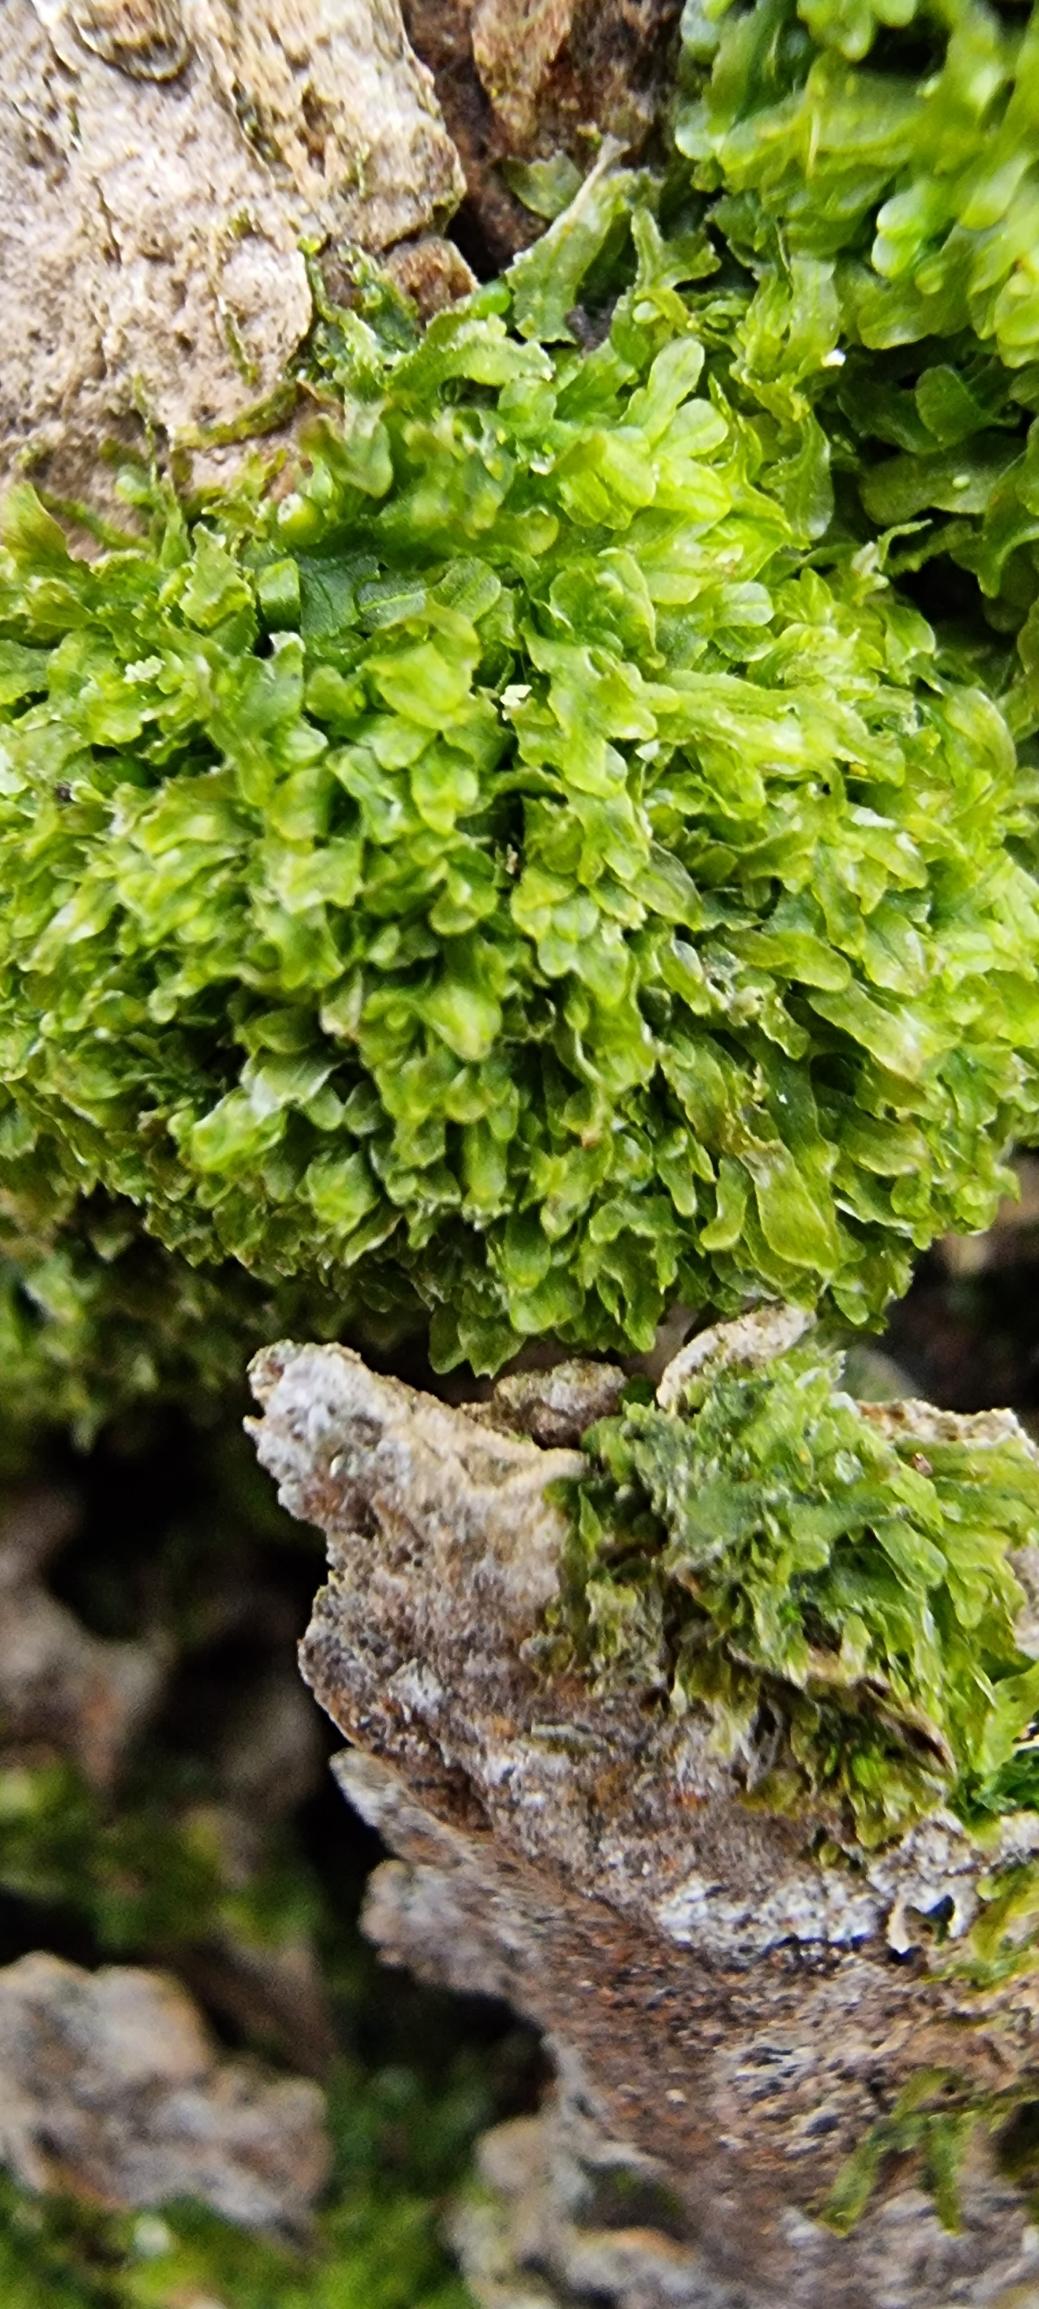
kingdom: Plantae
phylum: Marchantiophyta
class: Jungermanniopsida
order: Metzgeriales
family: Metzgeriaceae
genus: Metzgeria
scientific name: Metzgeria furcata
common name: Almindelig gaffelløv
